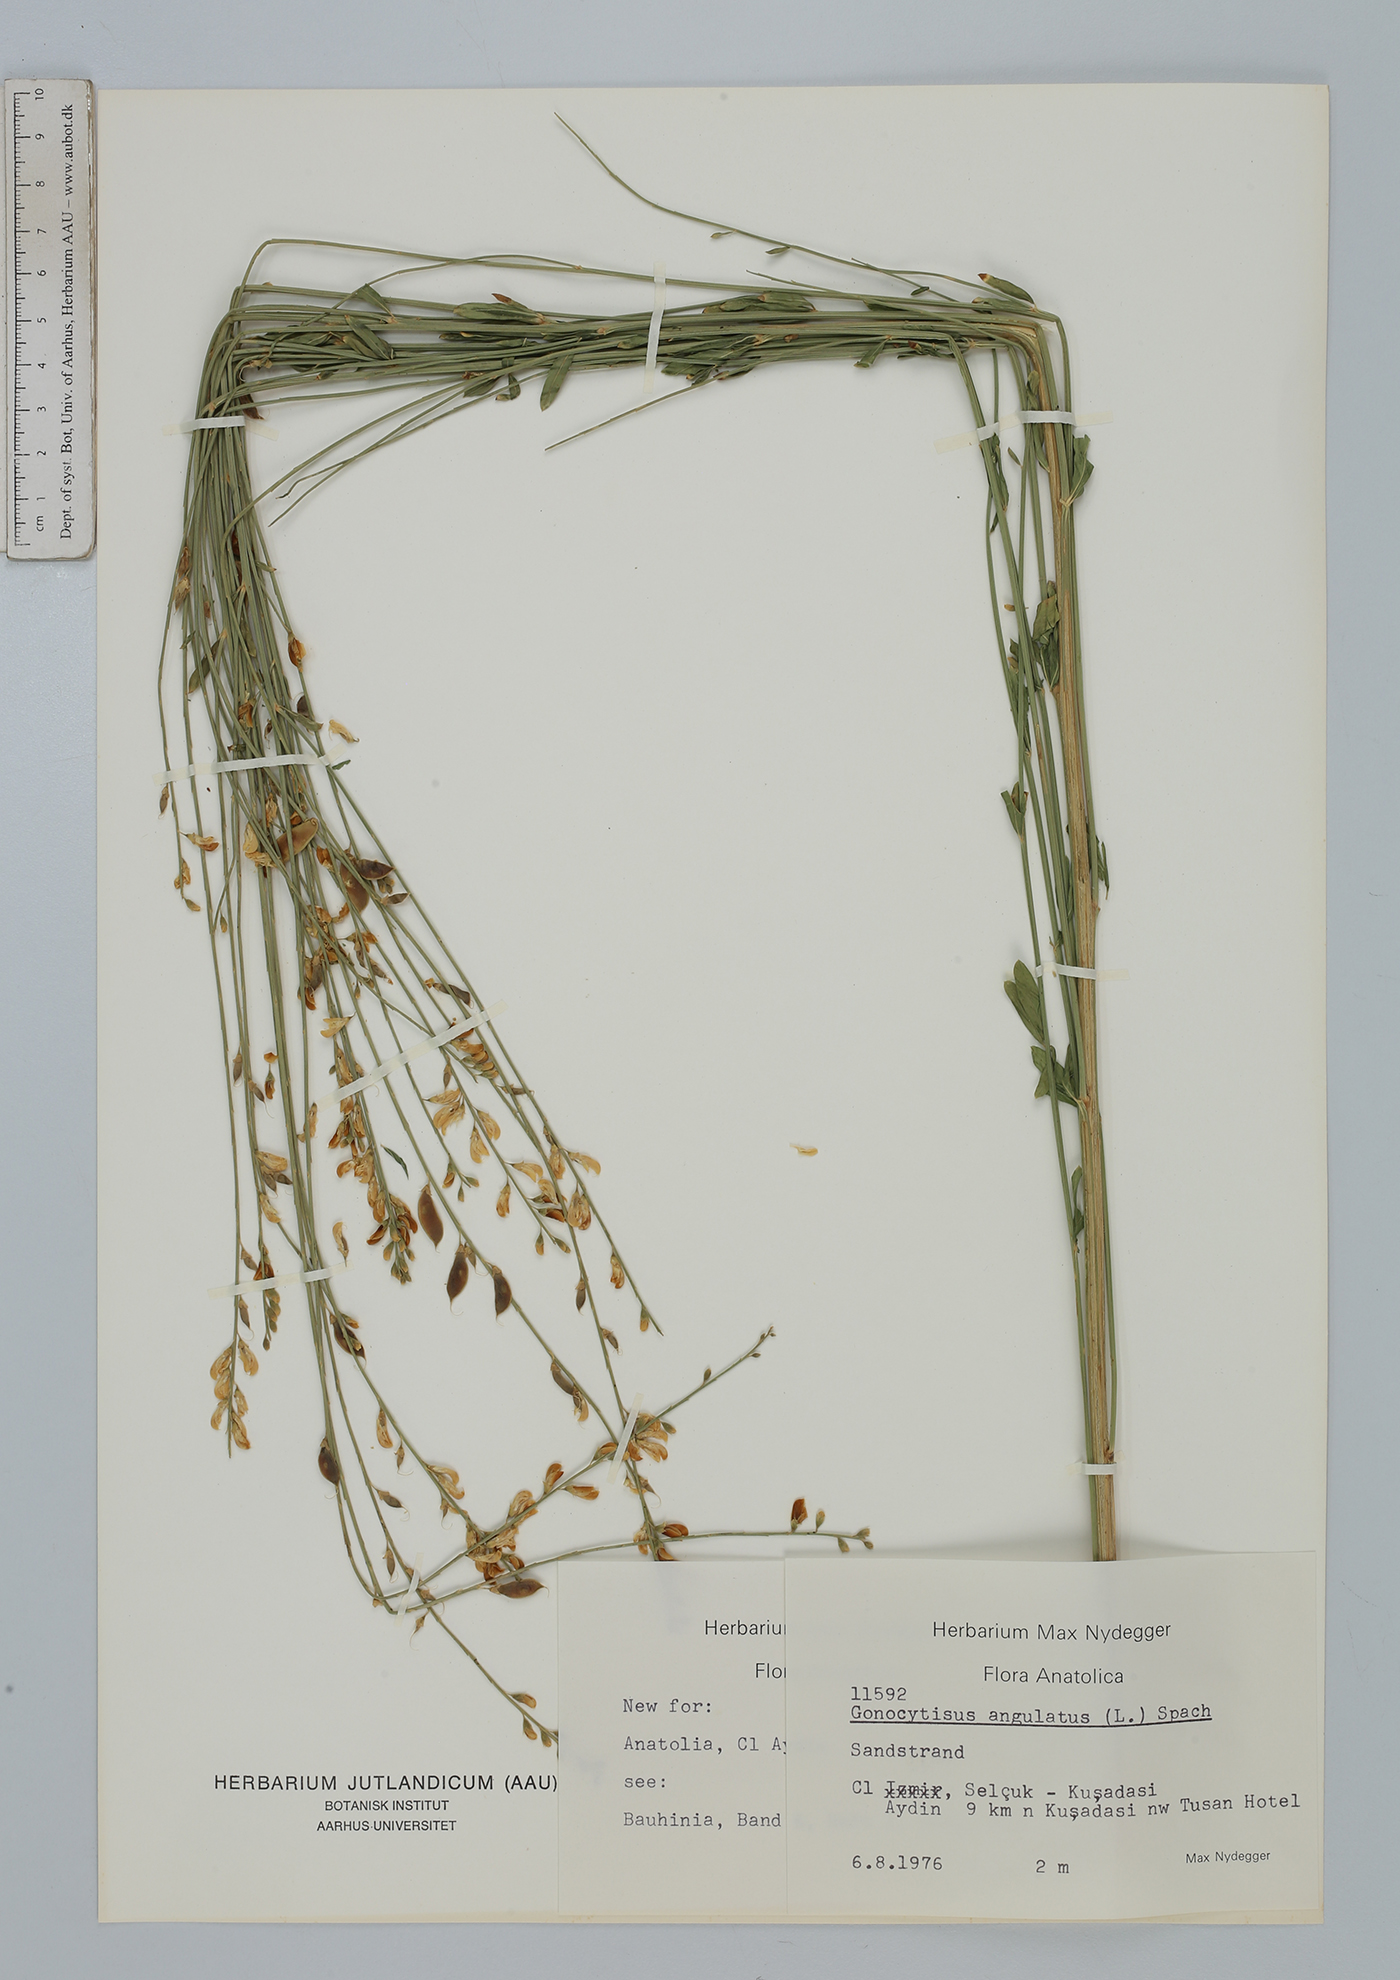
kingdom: Plantae
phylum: Tracheophyta
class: Magnoliopsida
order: Fabales
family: Fabaceae
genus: Gonocytisus
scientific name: Gonocytisus angulatus
